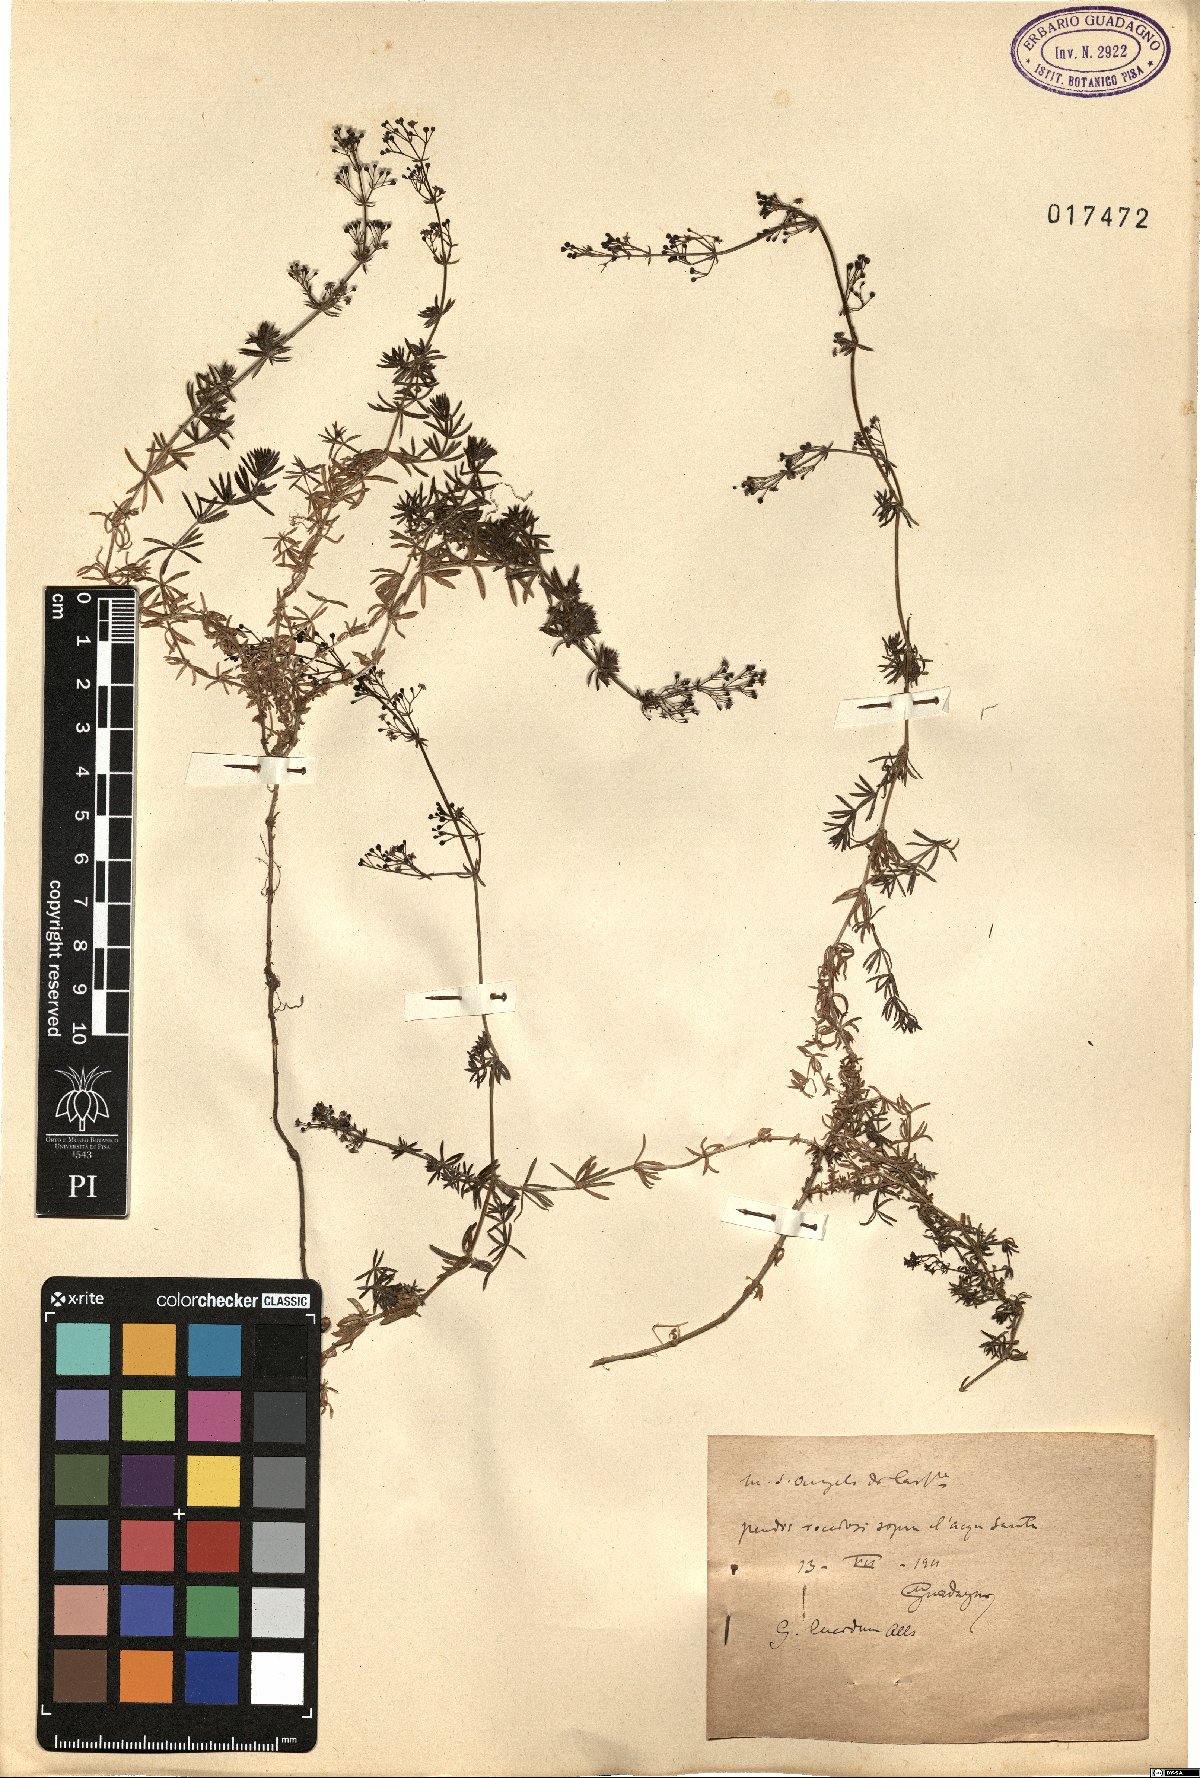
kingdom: Plantae
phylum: Tracheophyta
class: Magnoliopsida
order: Gentianales
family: Rubiaceae
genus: Galium
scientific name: Galium lucidum
